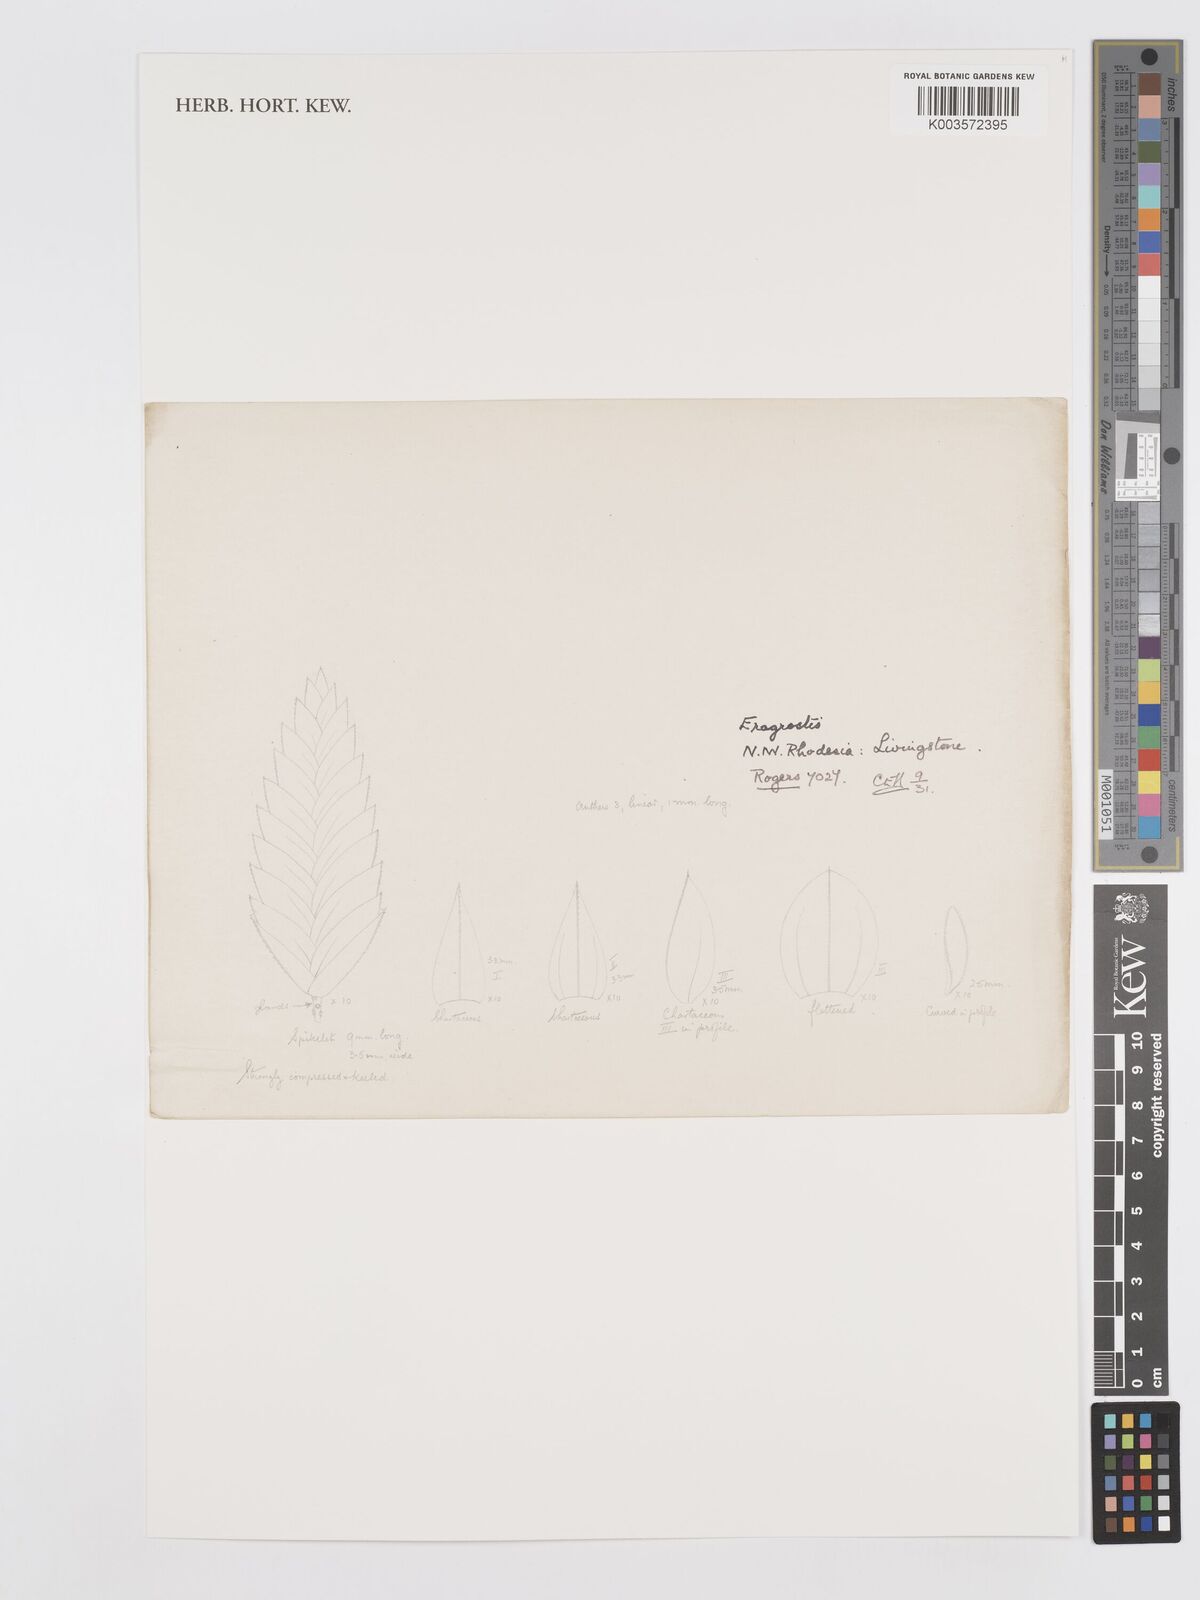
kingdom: Plantae
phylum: Tracheophyta
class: Liliopsida
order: Poales
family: Poaceae
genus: Eragrostis
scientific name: Eragrostis
